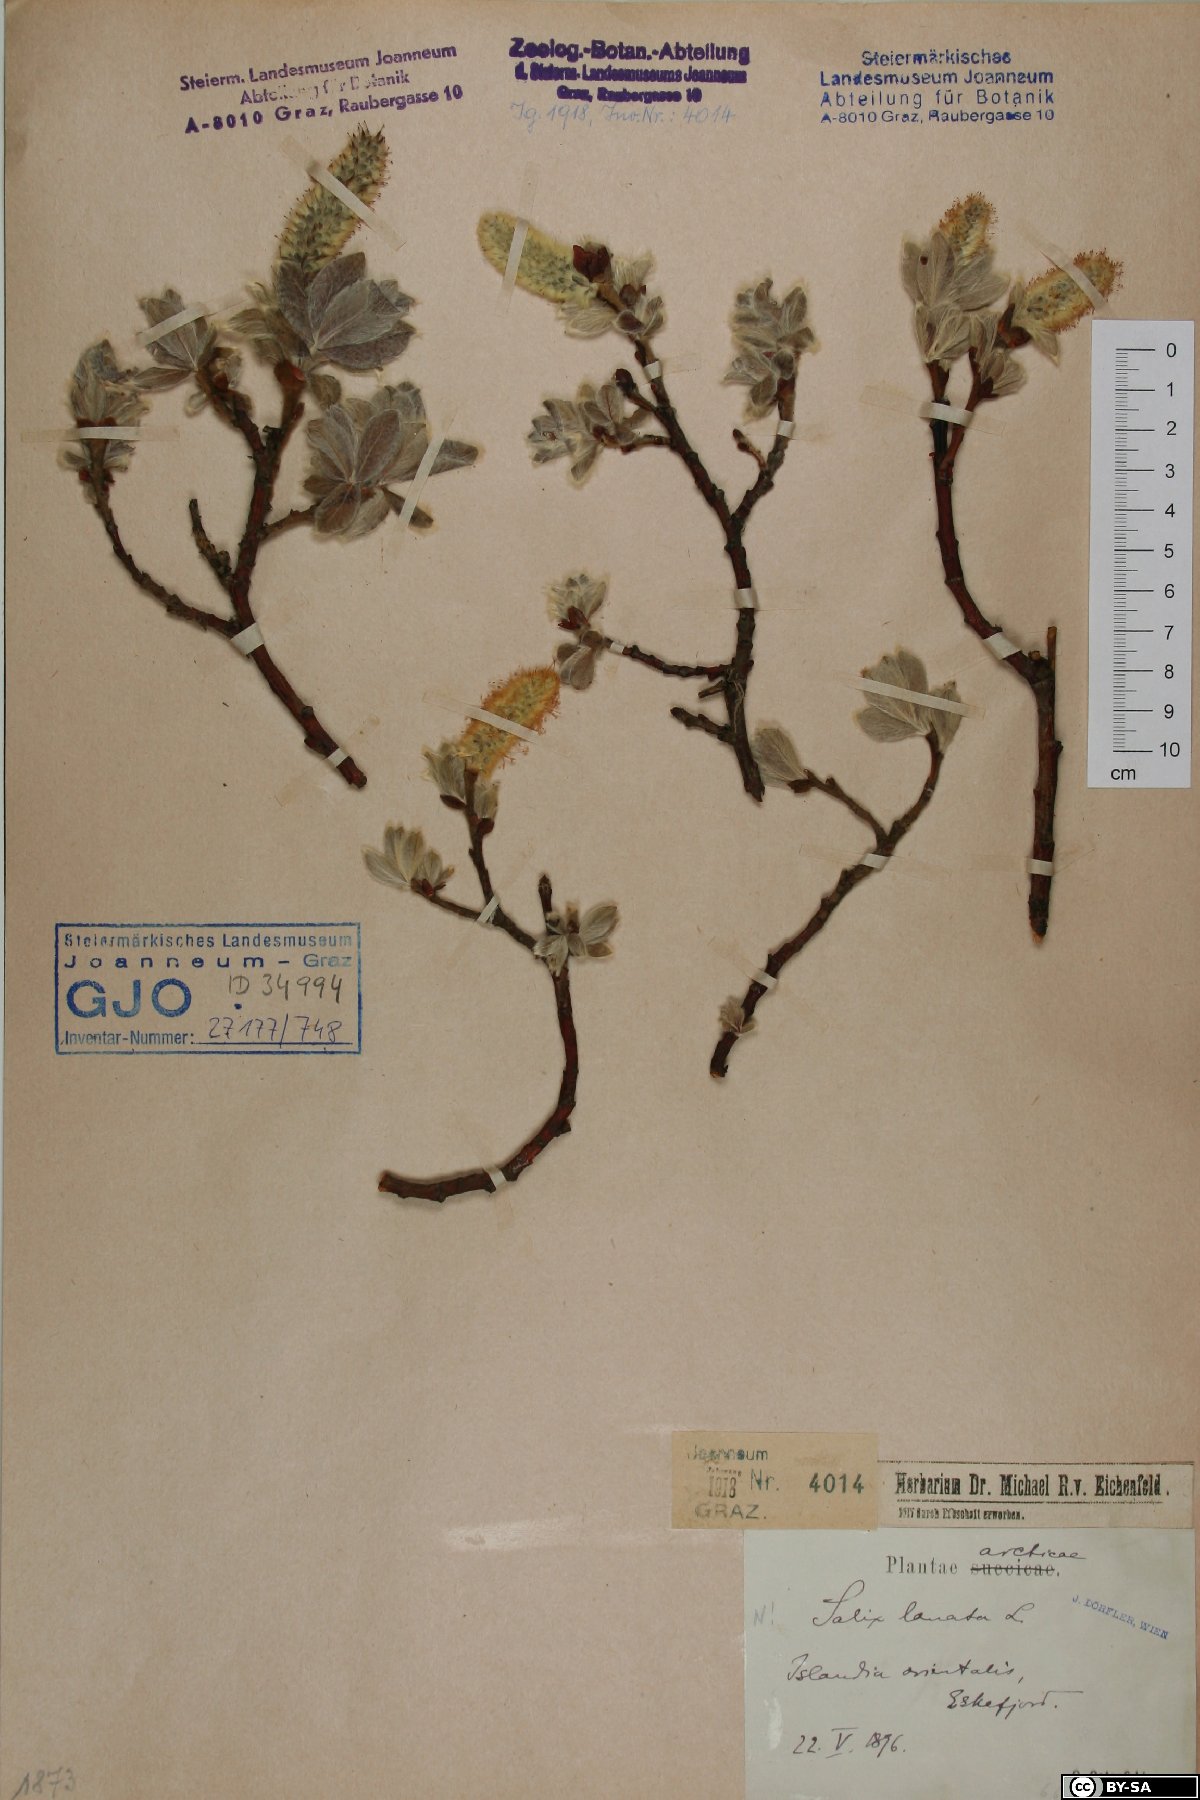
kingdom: Plantae
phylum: Tracheophyta
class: Magnoliopsida
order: Malpighiales
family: Salicaceae
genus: Salix
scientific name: Salix lanata
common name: Woolly willow
